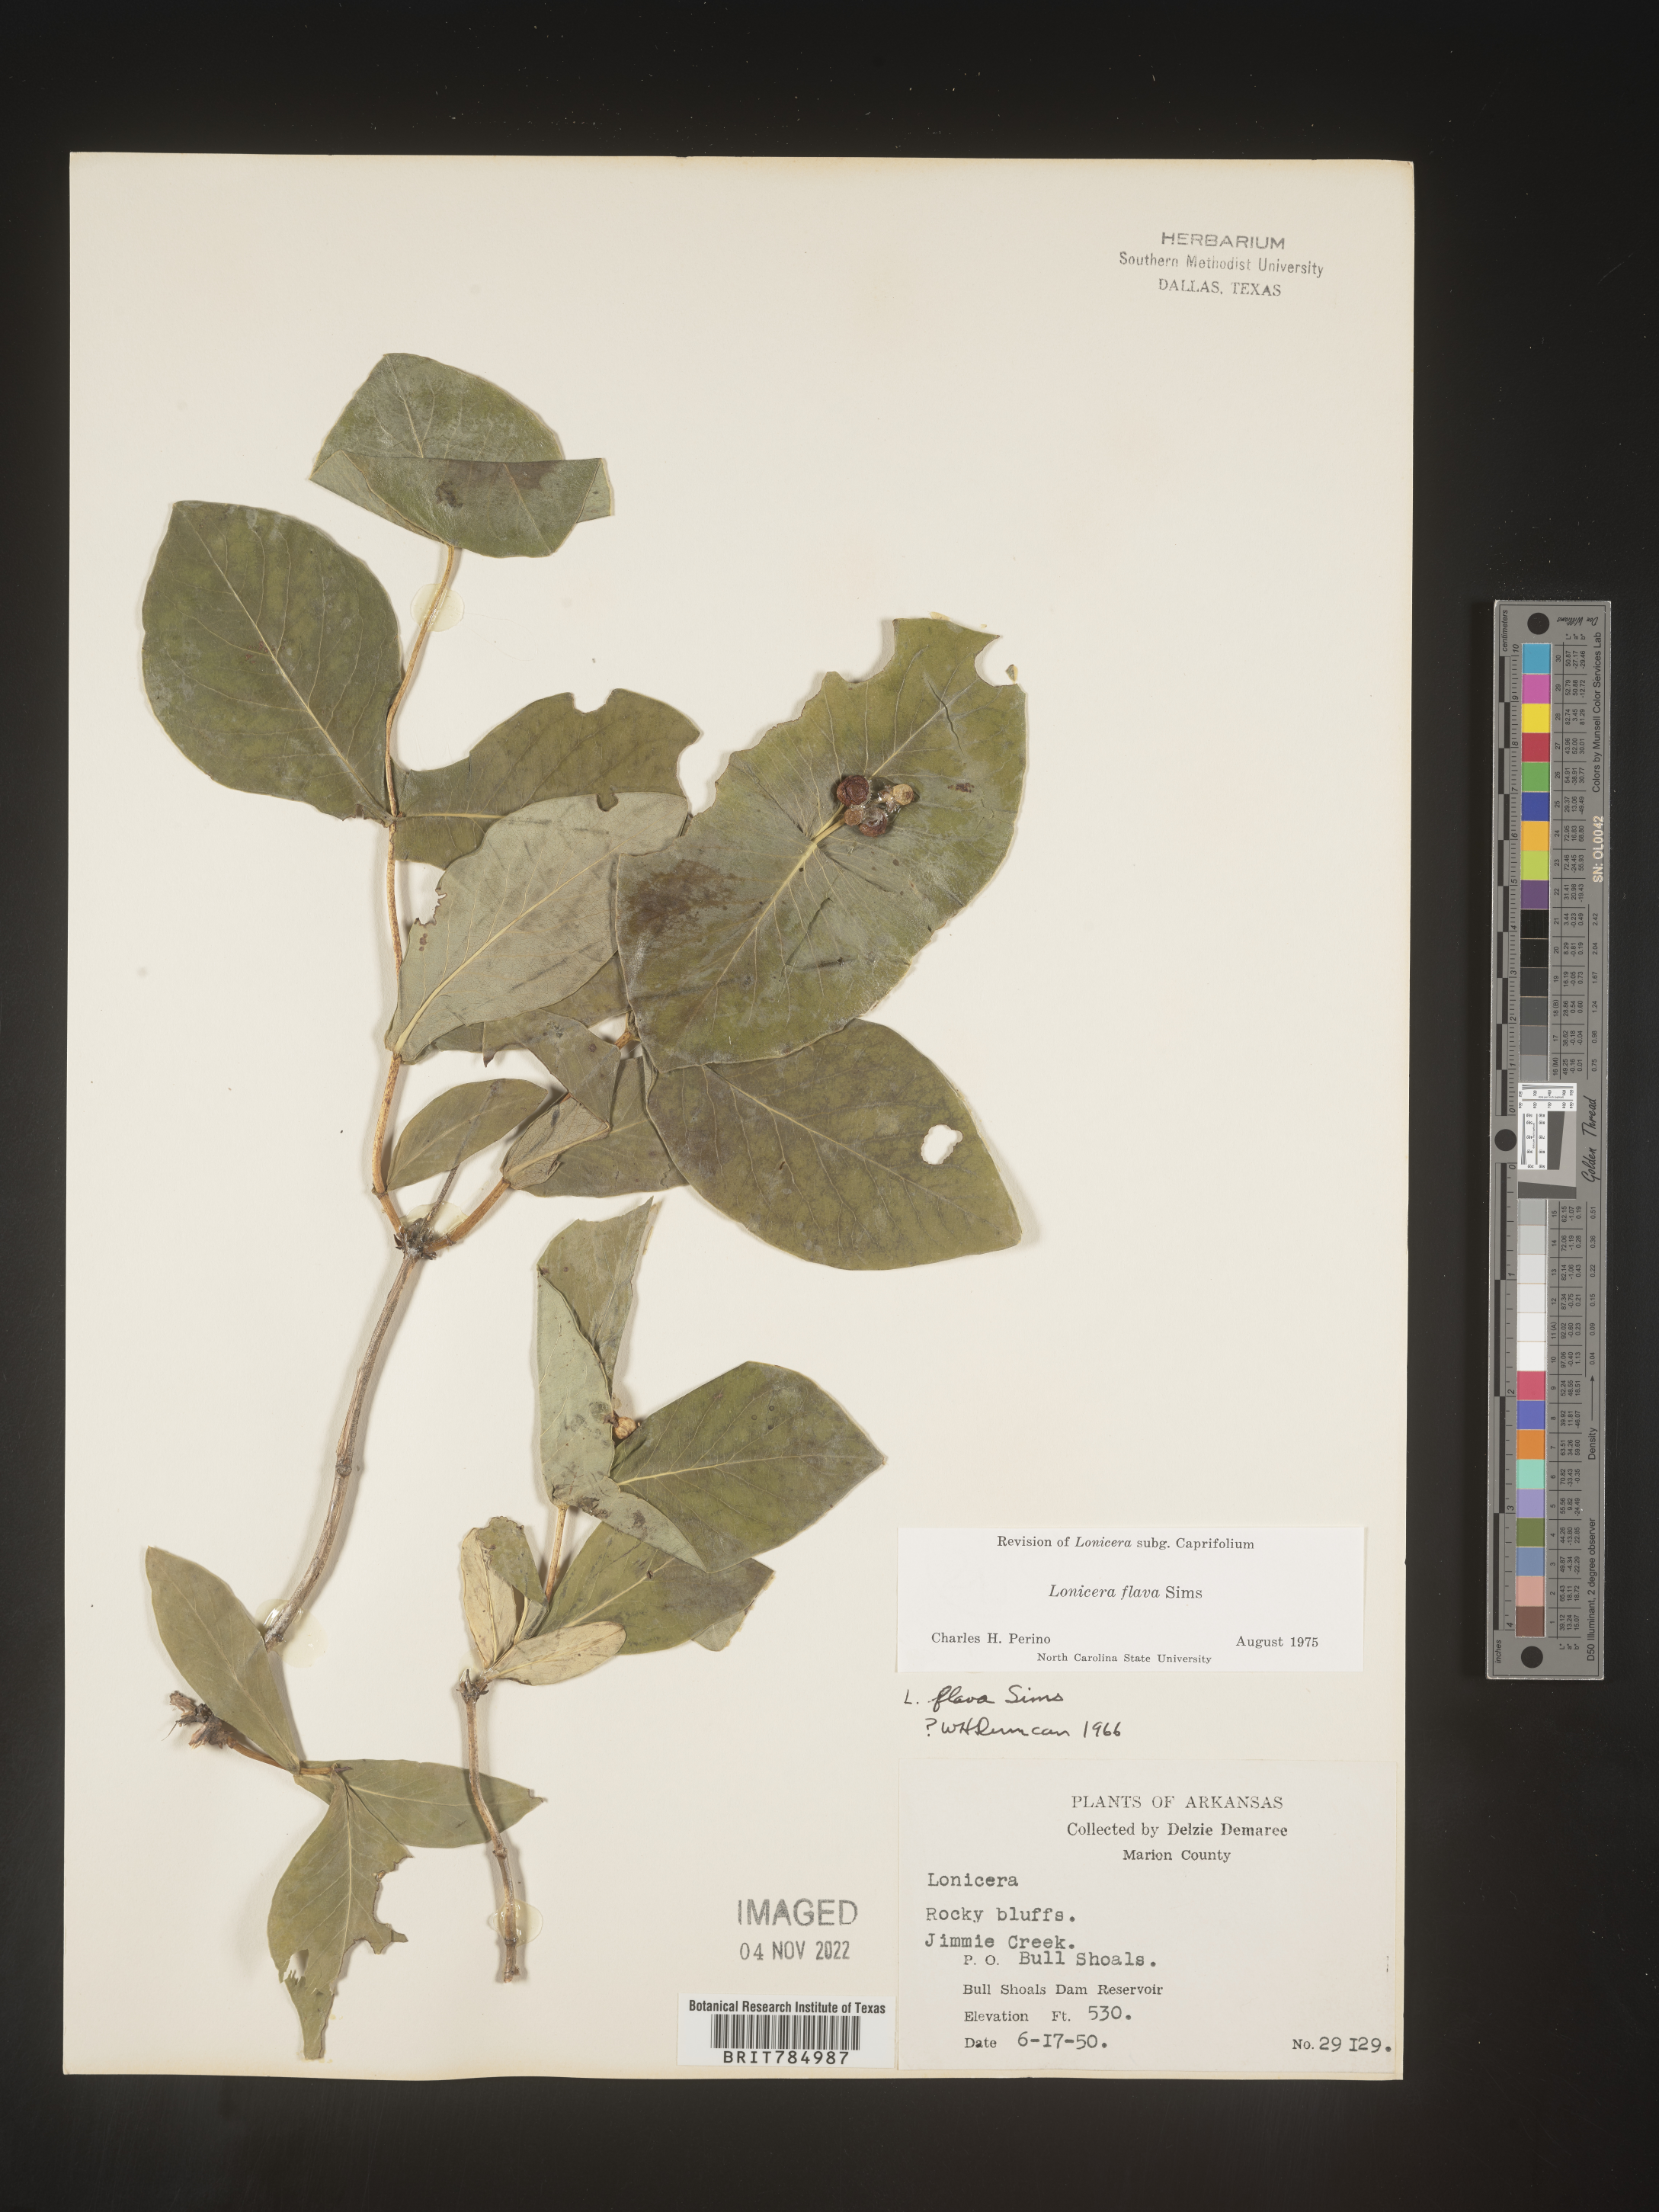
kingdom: Plantae
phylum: Tracheophyta
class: Magnoliopsida
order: Dipsacales
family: Caprifoliaceae
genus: Lonicera
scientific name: Lonicera flava
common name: Yellow honeysuckle
